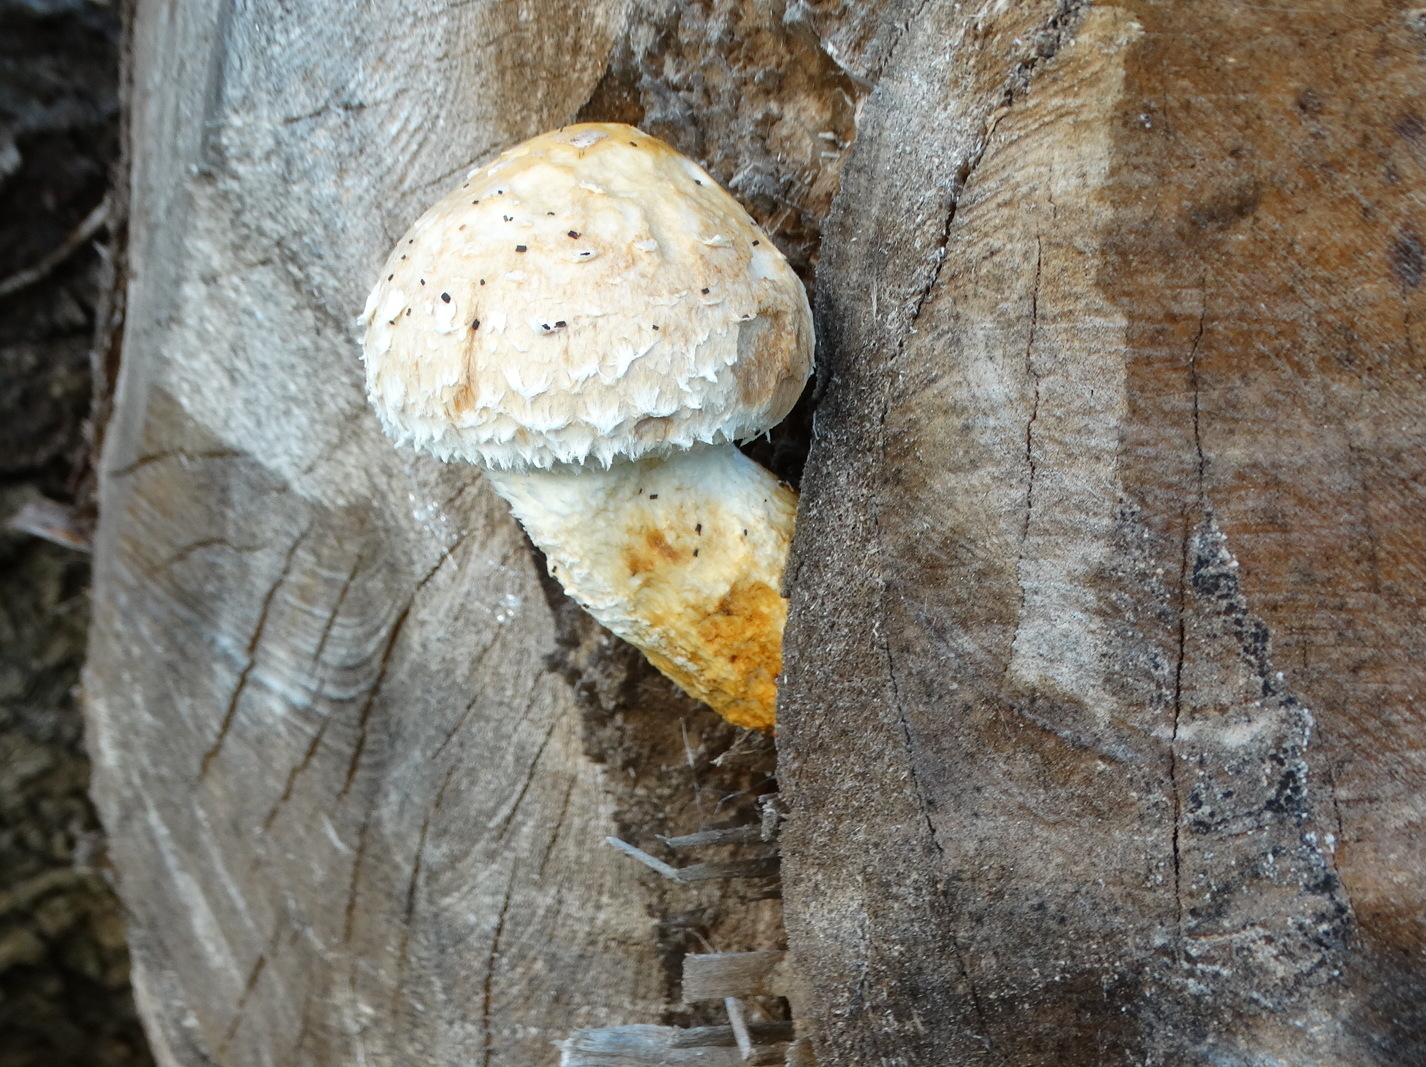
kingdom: Fungi
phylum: Basidiomycota
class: Agaricomycetes
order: Agaricales
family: Strophariaceae
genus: Pholiota
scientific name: Pholiota populnea
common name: poppel-kæmpeskælhat
